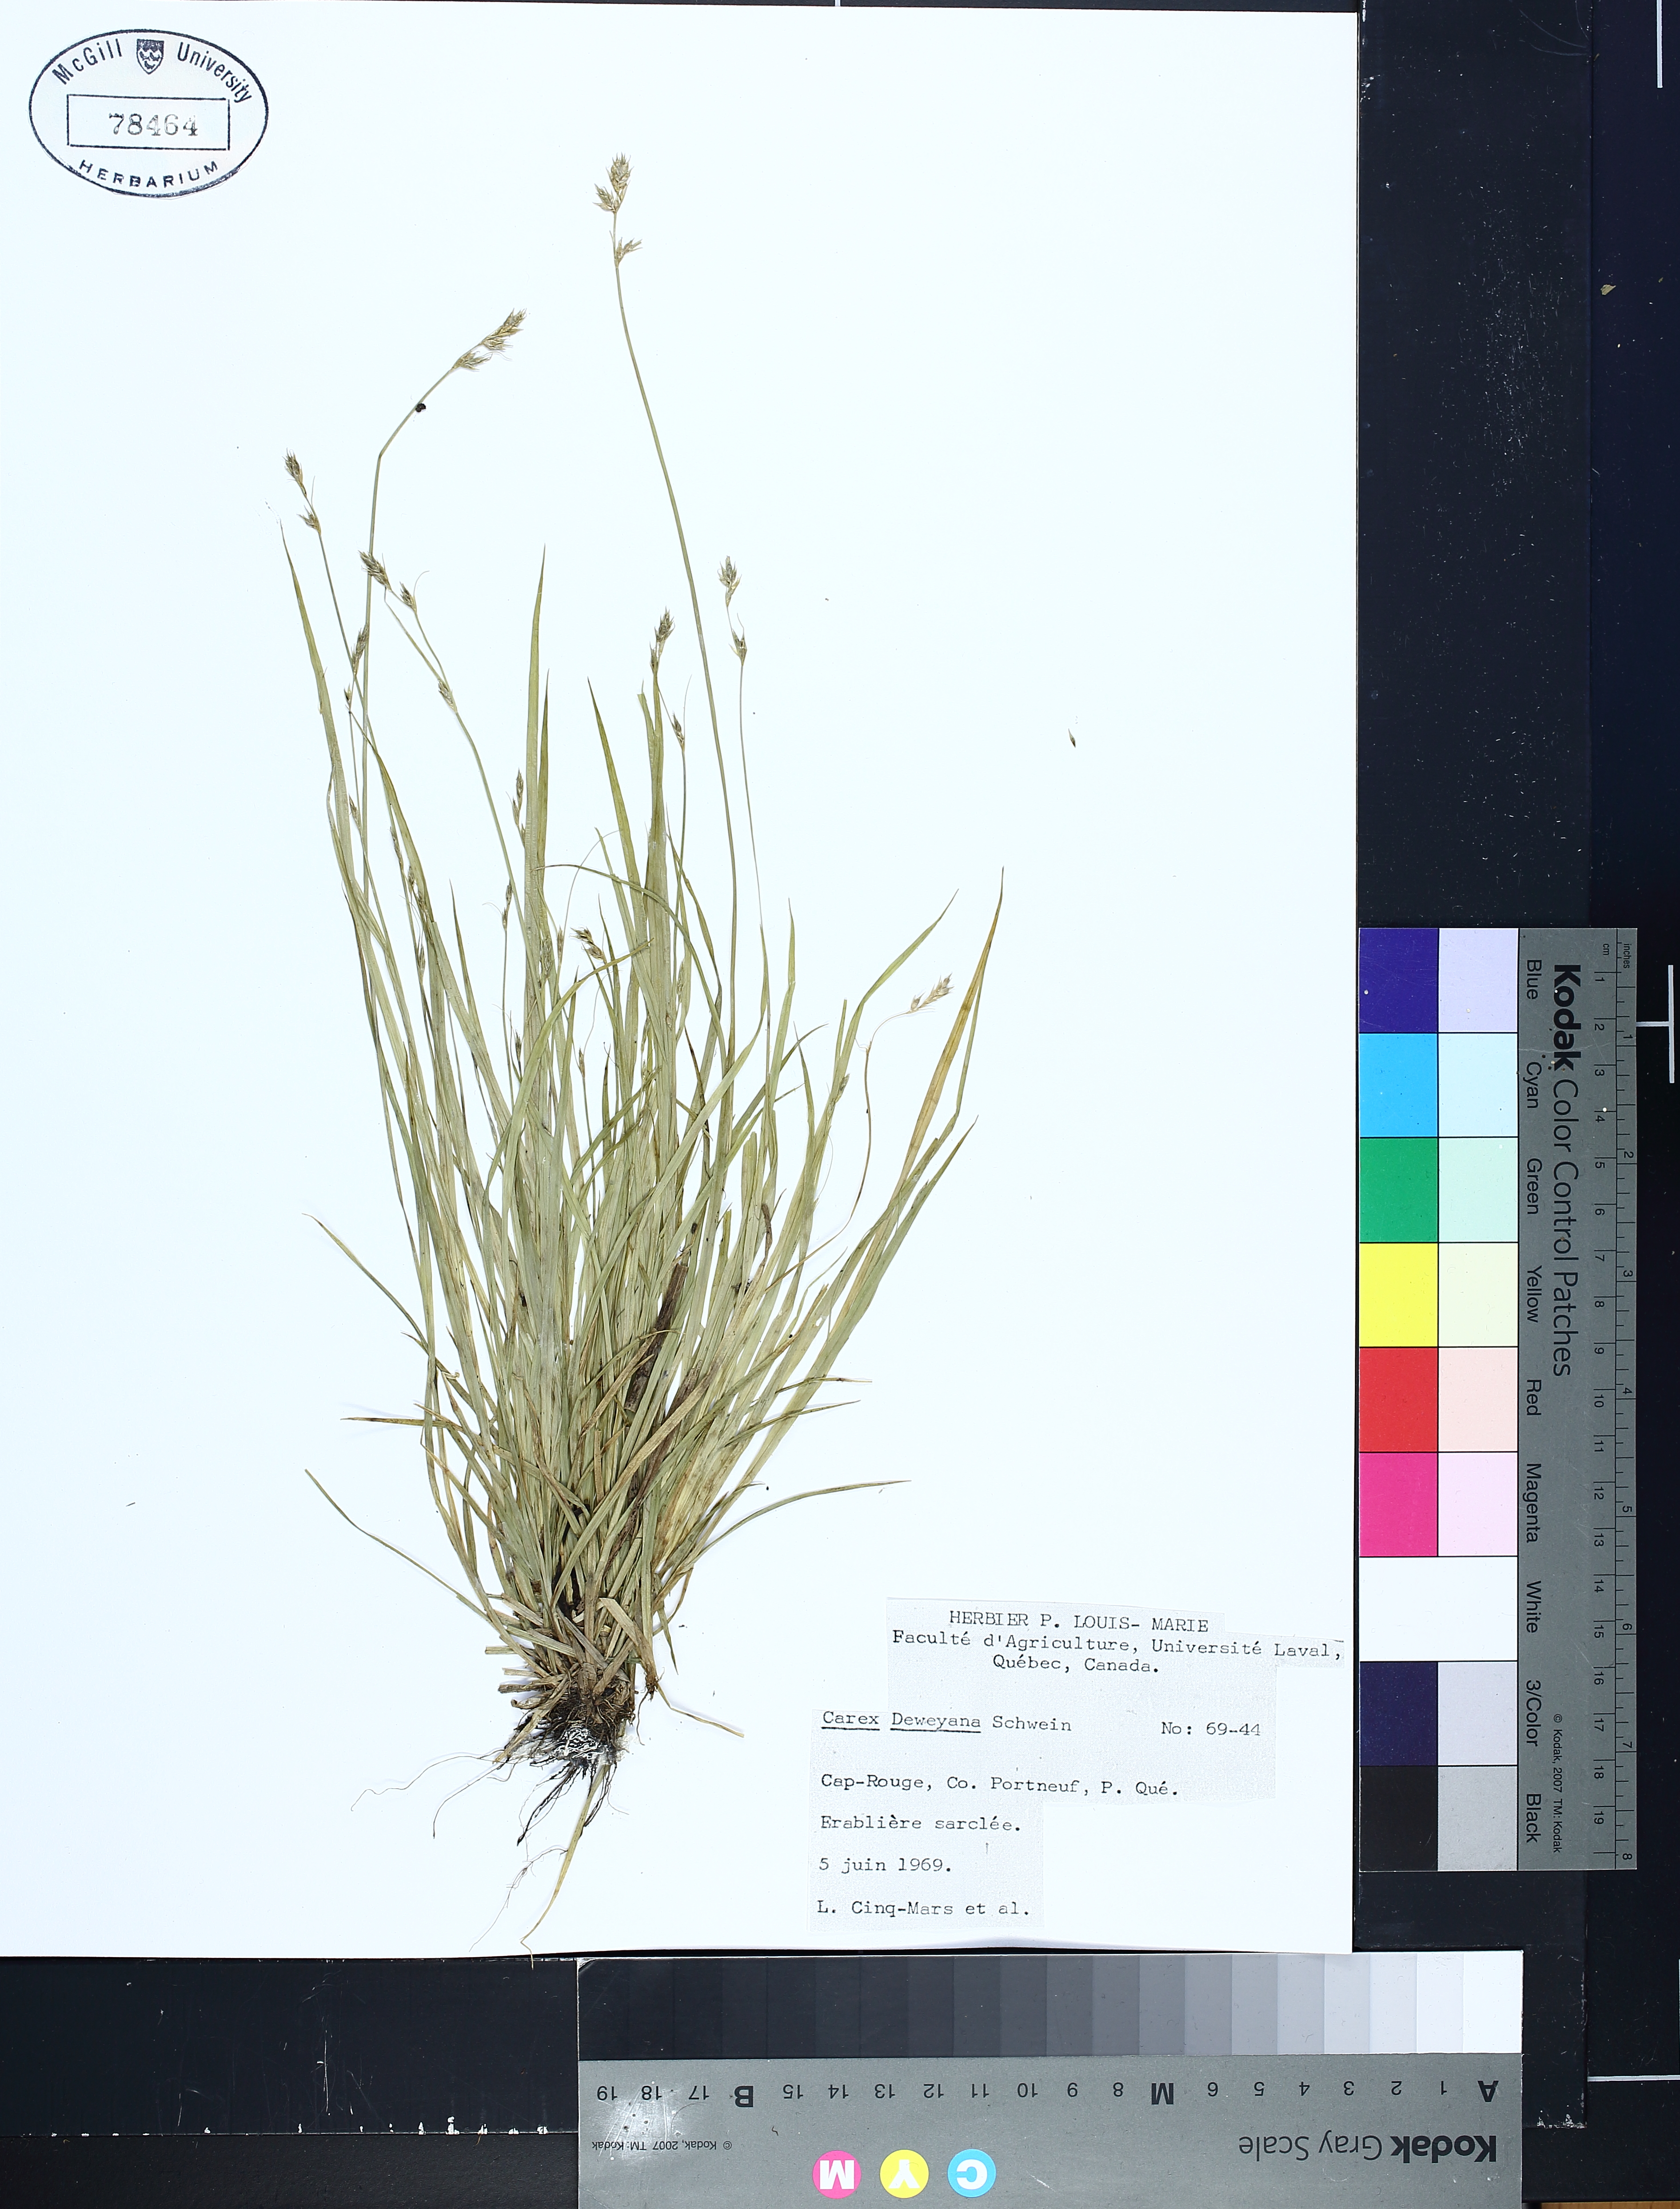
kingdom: Plantae
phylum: Tracheophyta
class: Liliopsida
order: Poales
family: Cyperaceae
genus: Carex
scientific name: Carex deweyana
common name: Dewey's sedge
